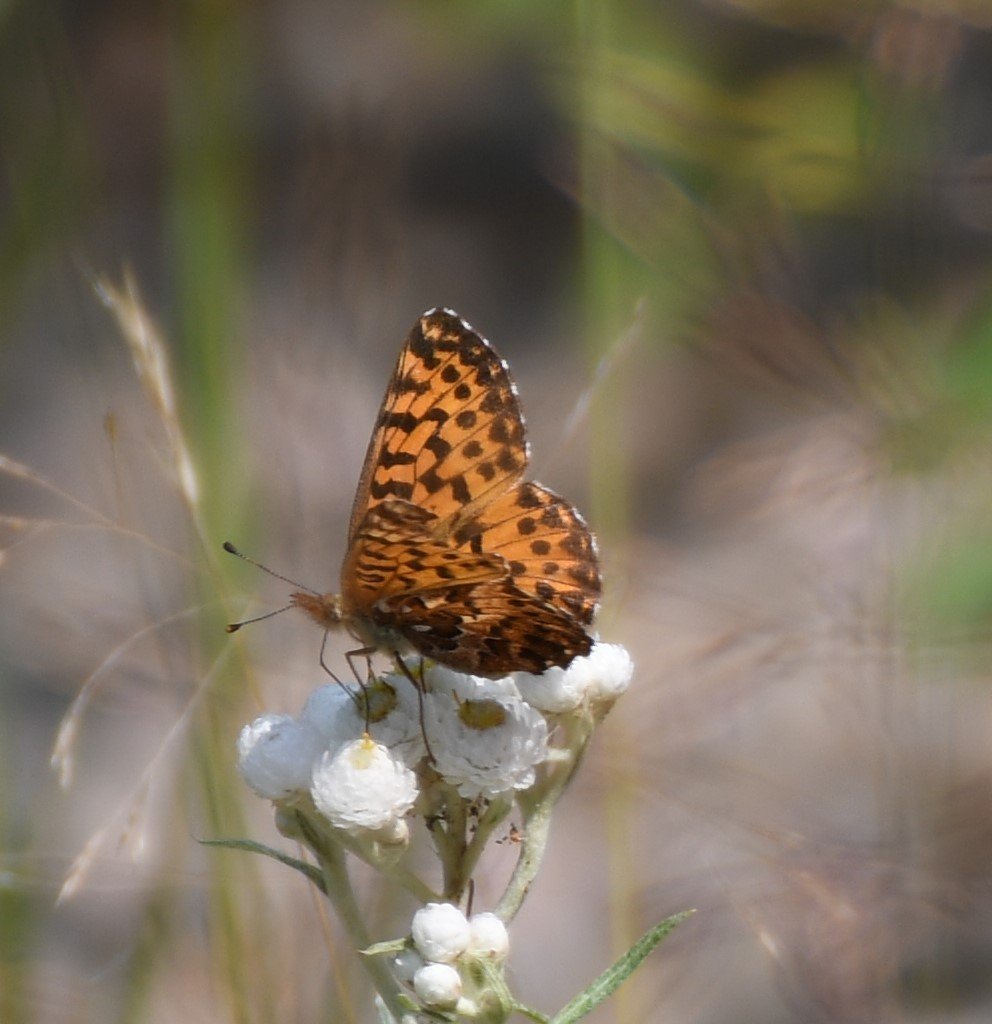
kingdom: Animalia
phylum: Arthropoda
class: Insecta
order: Lepidoptera
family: Nymphalidae
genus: Boloria
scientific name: Boloria chariclea
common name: Arctic Fritillary
